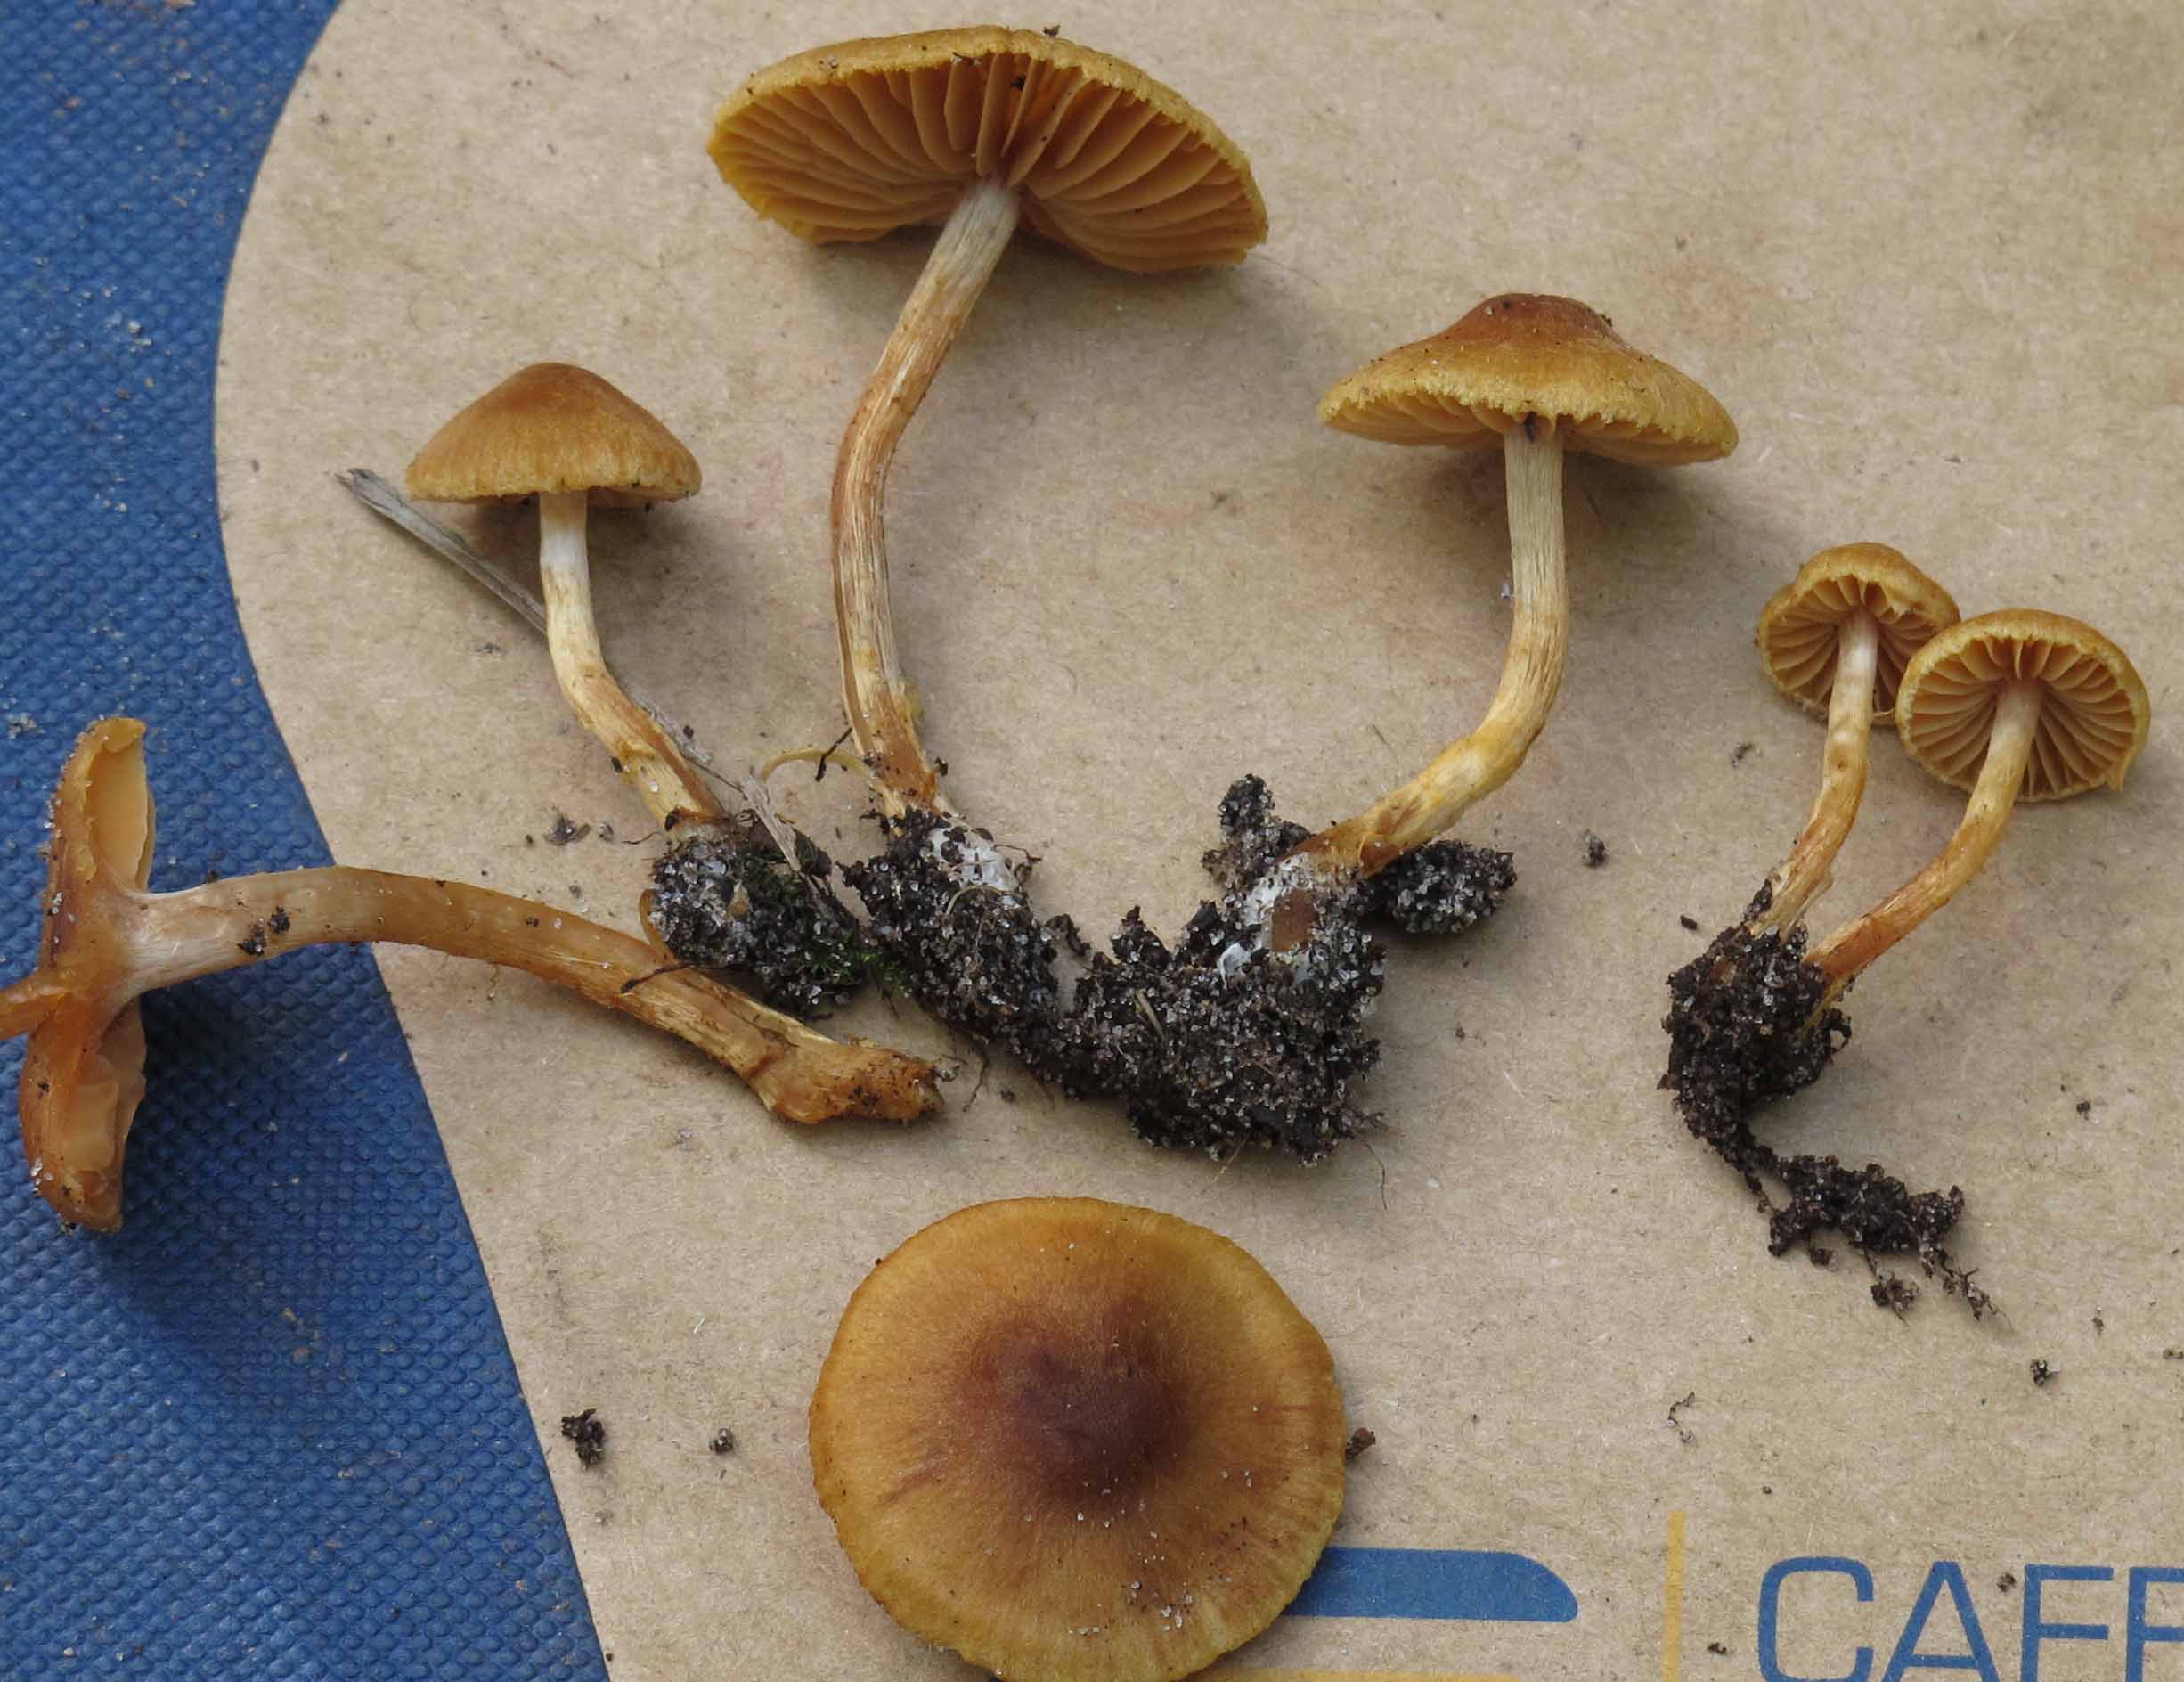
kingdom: Fungi
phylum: Basidiomycota
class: Agaricomycetes
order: Agaricales
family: Cortinariaceae
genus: Cortinarius
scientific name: Cortinarius saniosus
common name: gultrævlet slørhat
